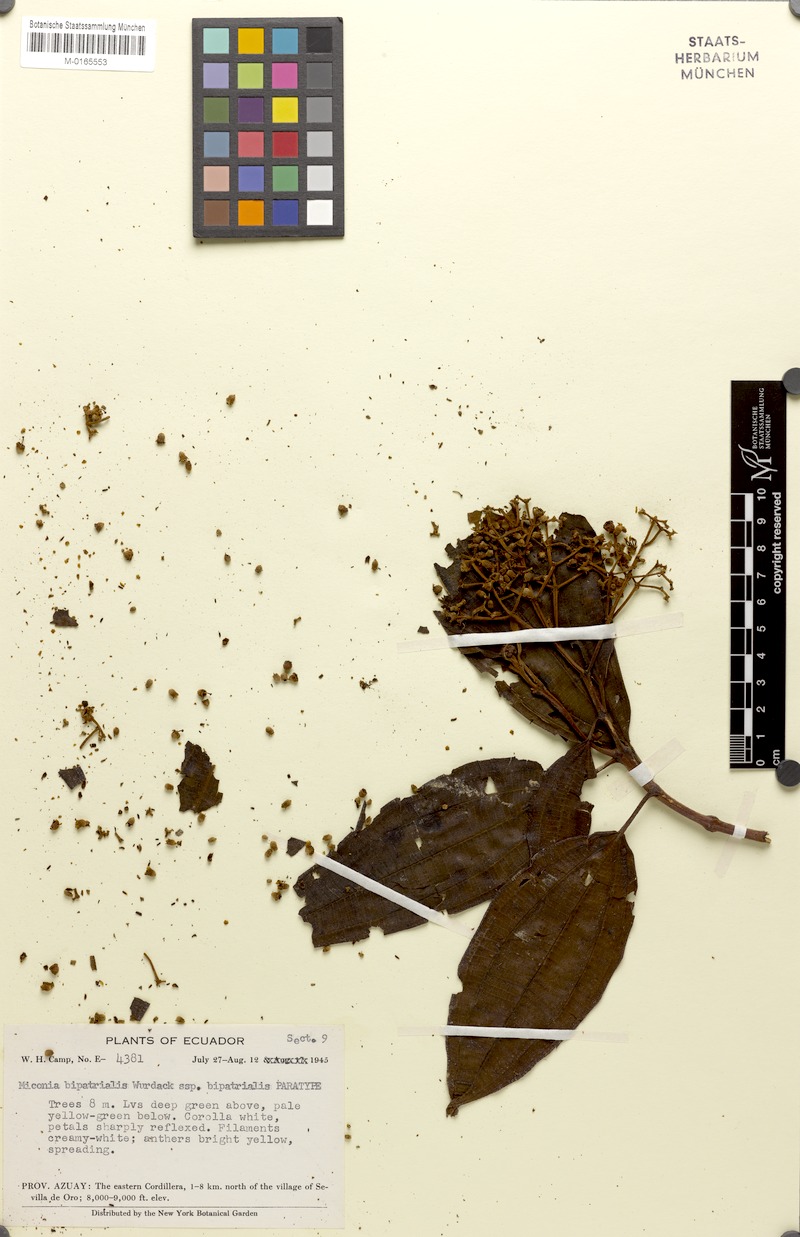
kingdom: Plantae
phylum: Tracheophyta
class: Magnoliopsida
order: Myrtales
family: Melastomataceae
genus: Miconia
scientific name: Miconia bipatrialis
